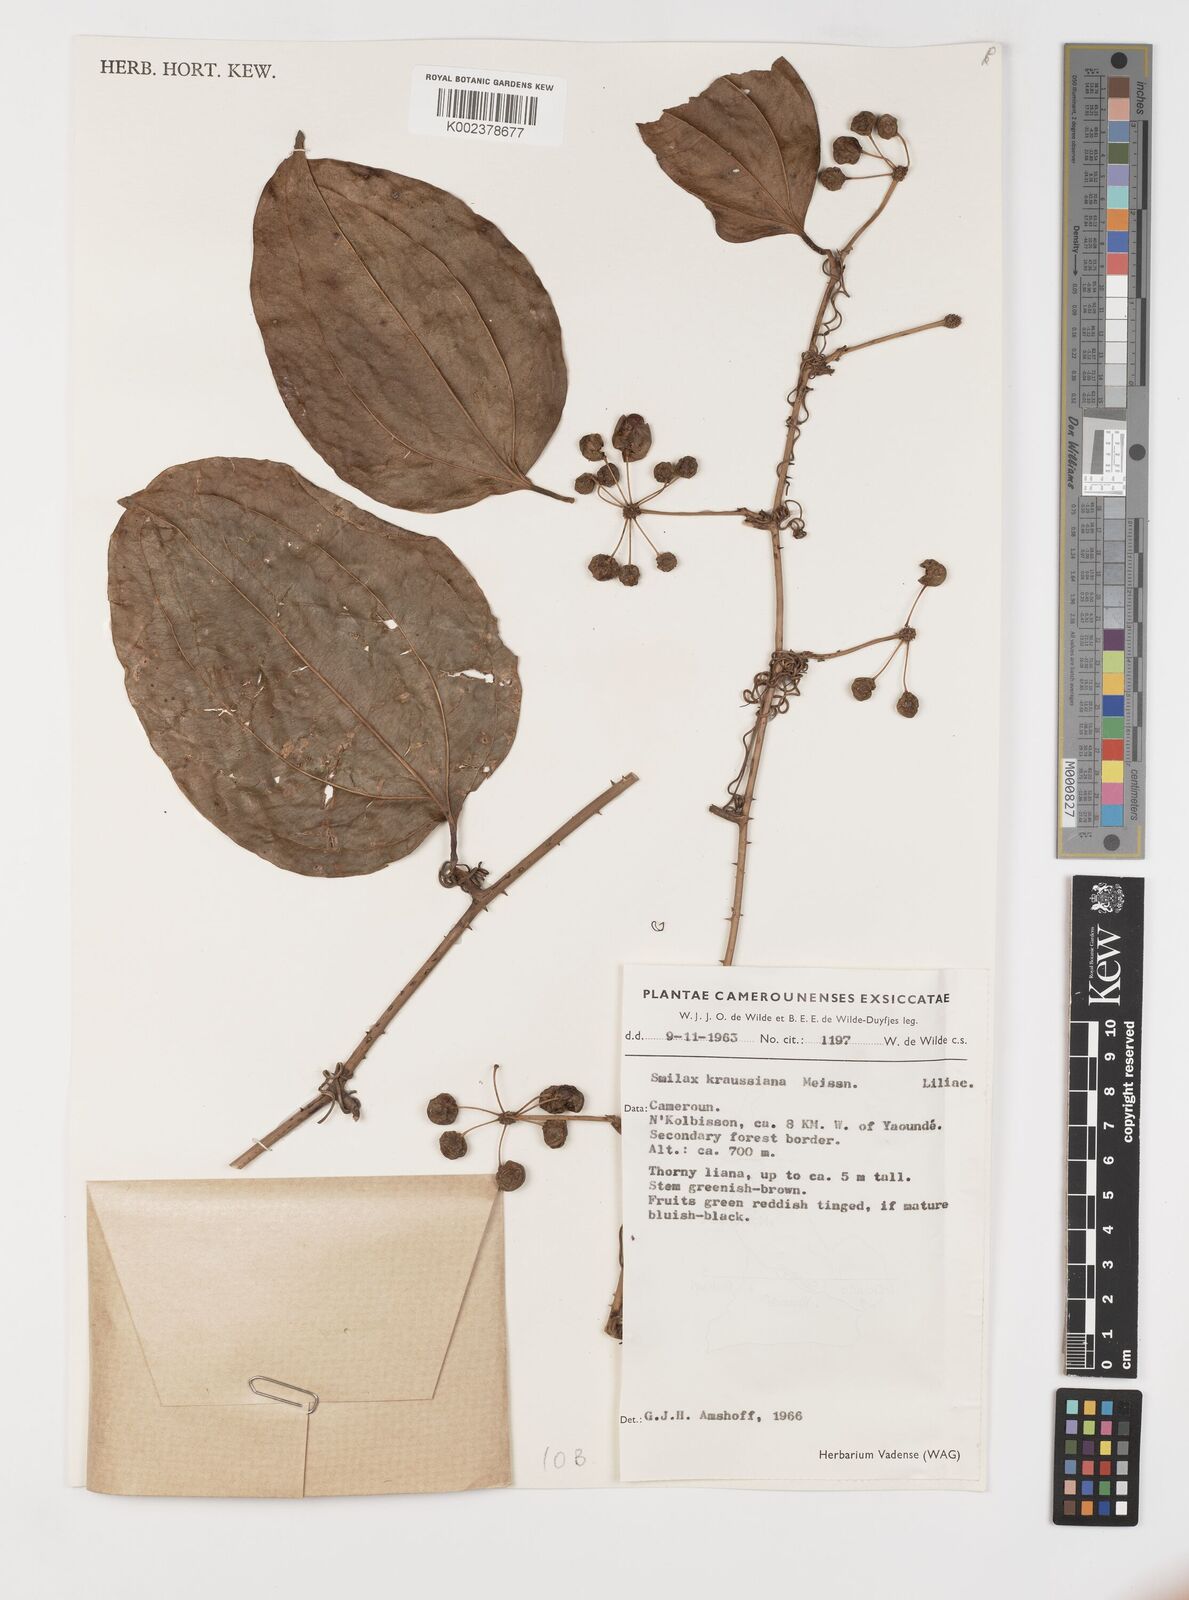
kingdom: Plantae
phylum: Tracheophyta
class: Liliopsida
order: Liliales
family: Smilacaceae
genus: Smilax
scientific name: Smilax anceps
